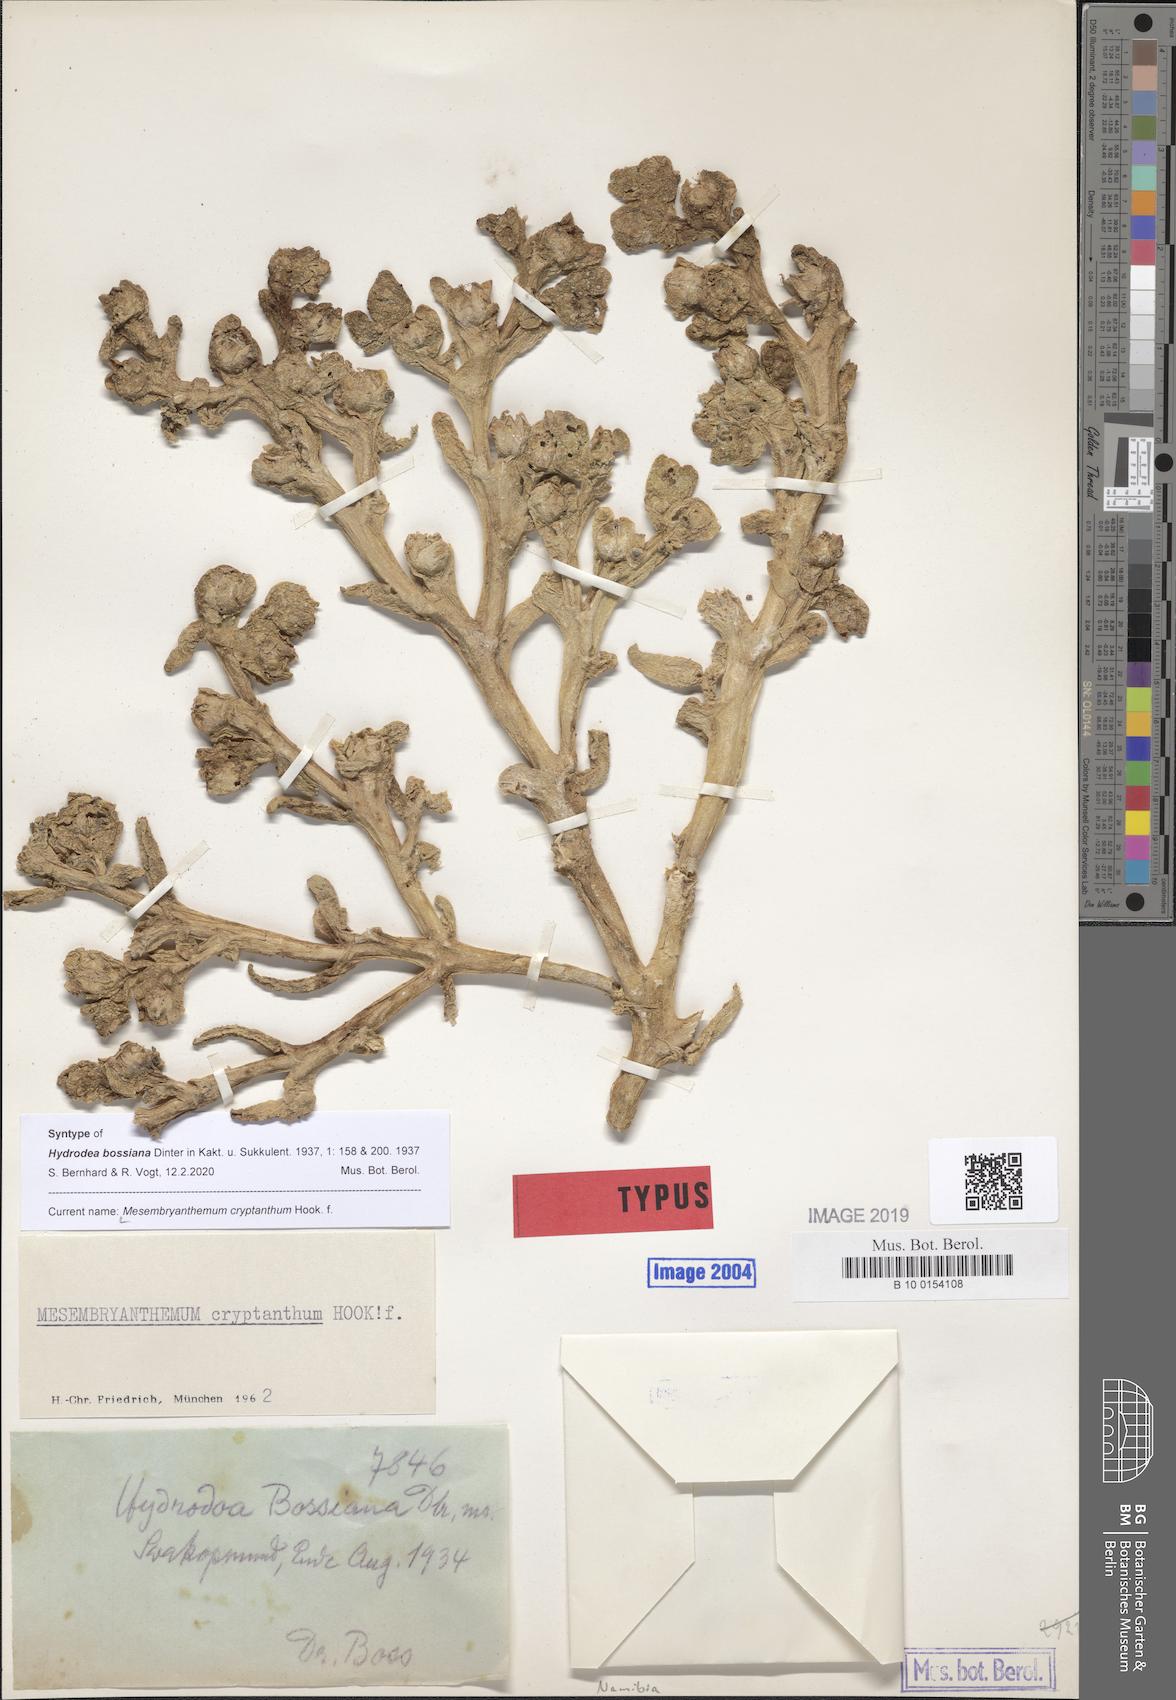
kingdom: Plantae
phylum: Tracheophyta
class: Magnoliopsida
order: Caryophyllales
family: Aizoaceae
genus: Mesembryanthemum
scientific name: Mesembryanthemum cryptanthum
